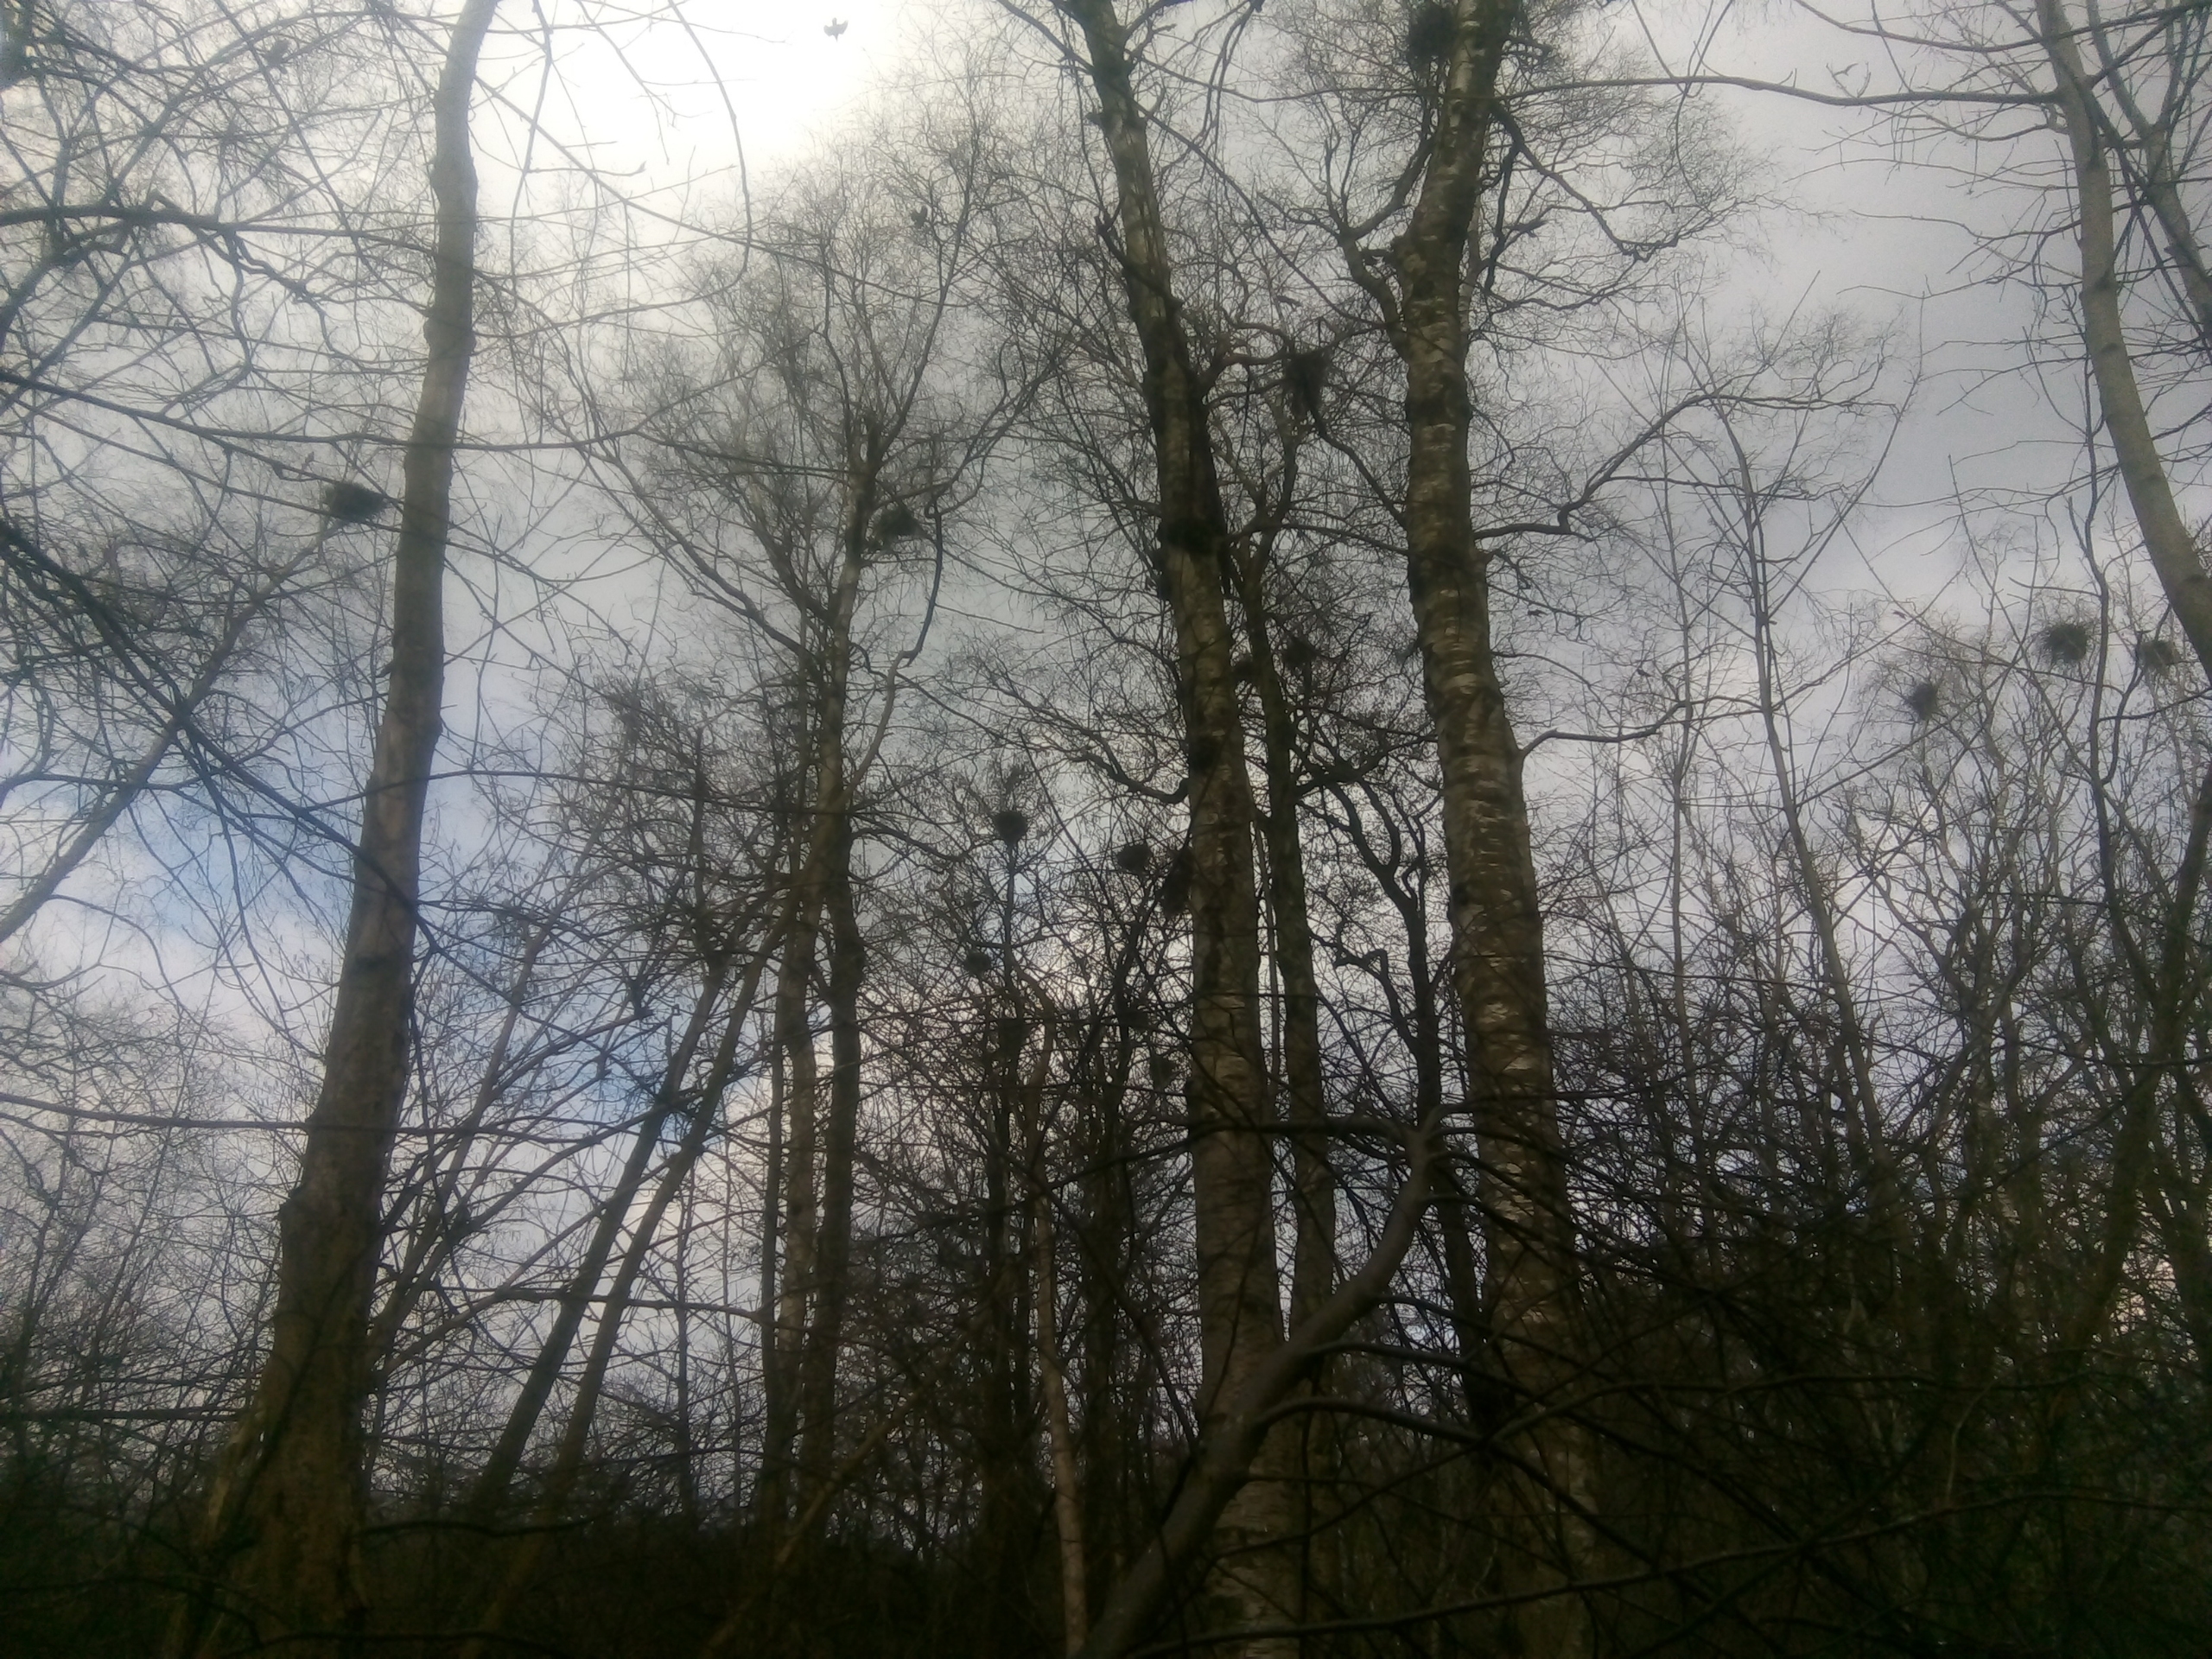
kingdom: Animalia
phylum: Chordata
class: Aves
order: Passeriformes
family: Corvidae
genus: Corvus
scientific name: Corvus frugilegus
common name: Råge
